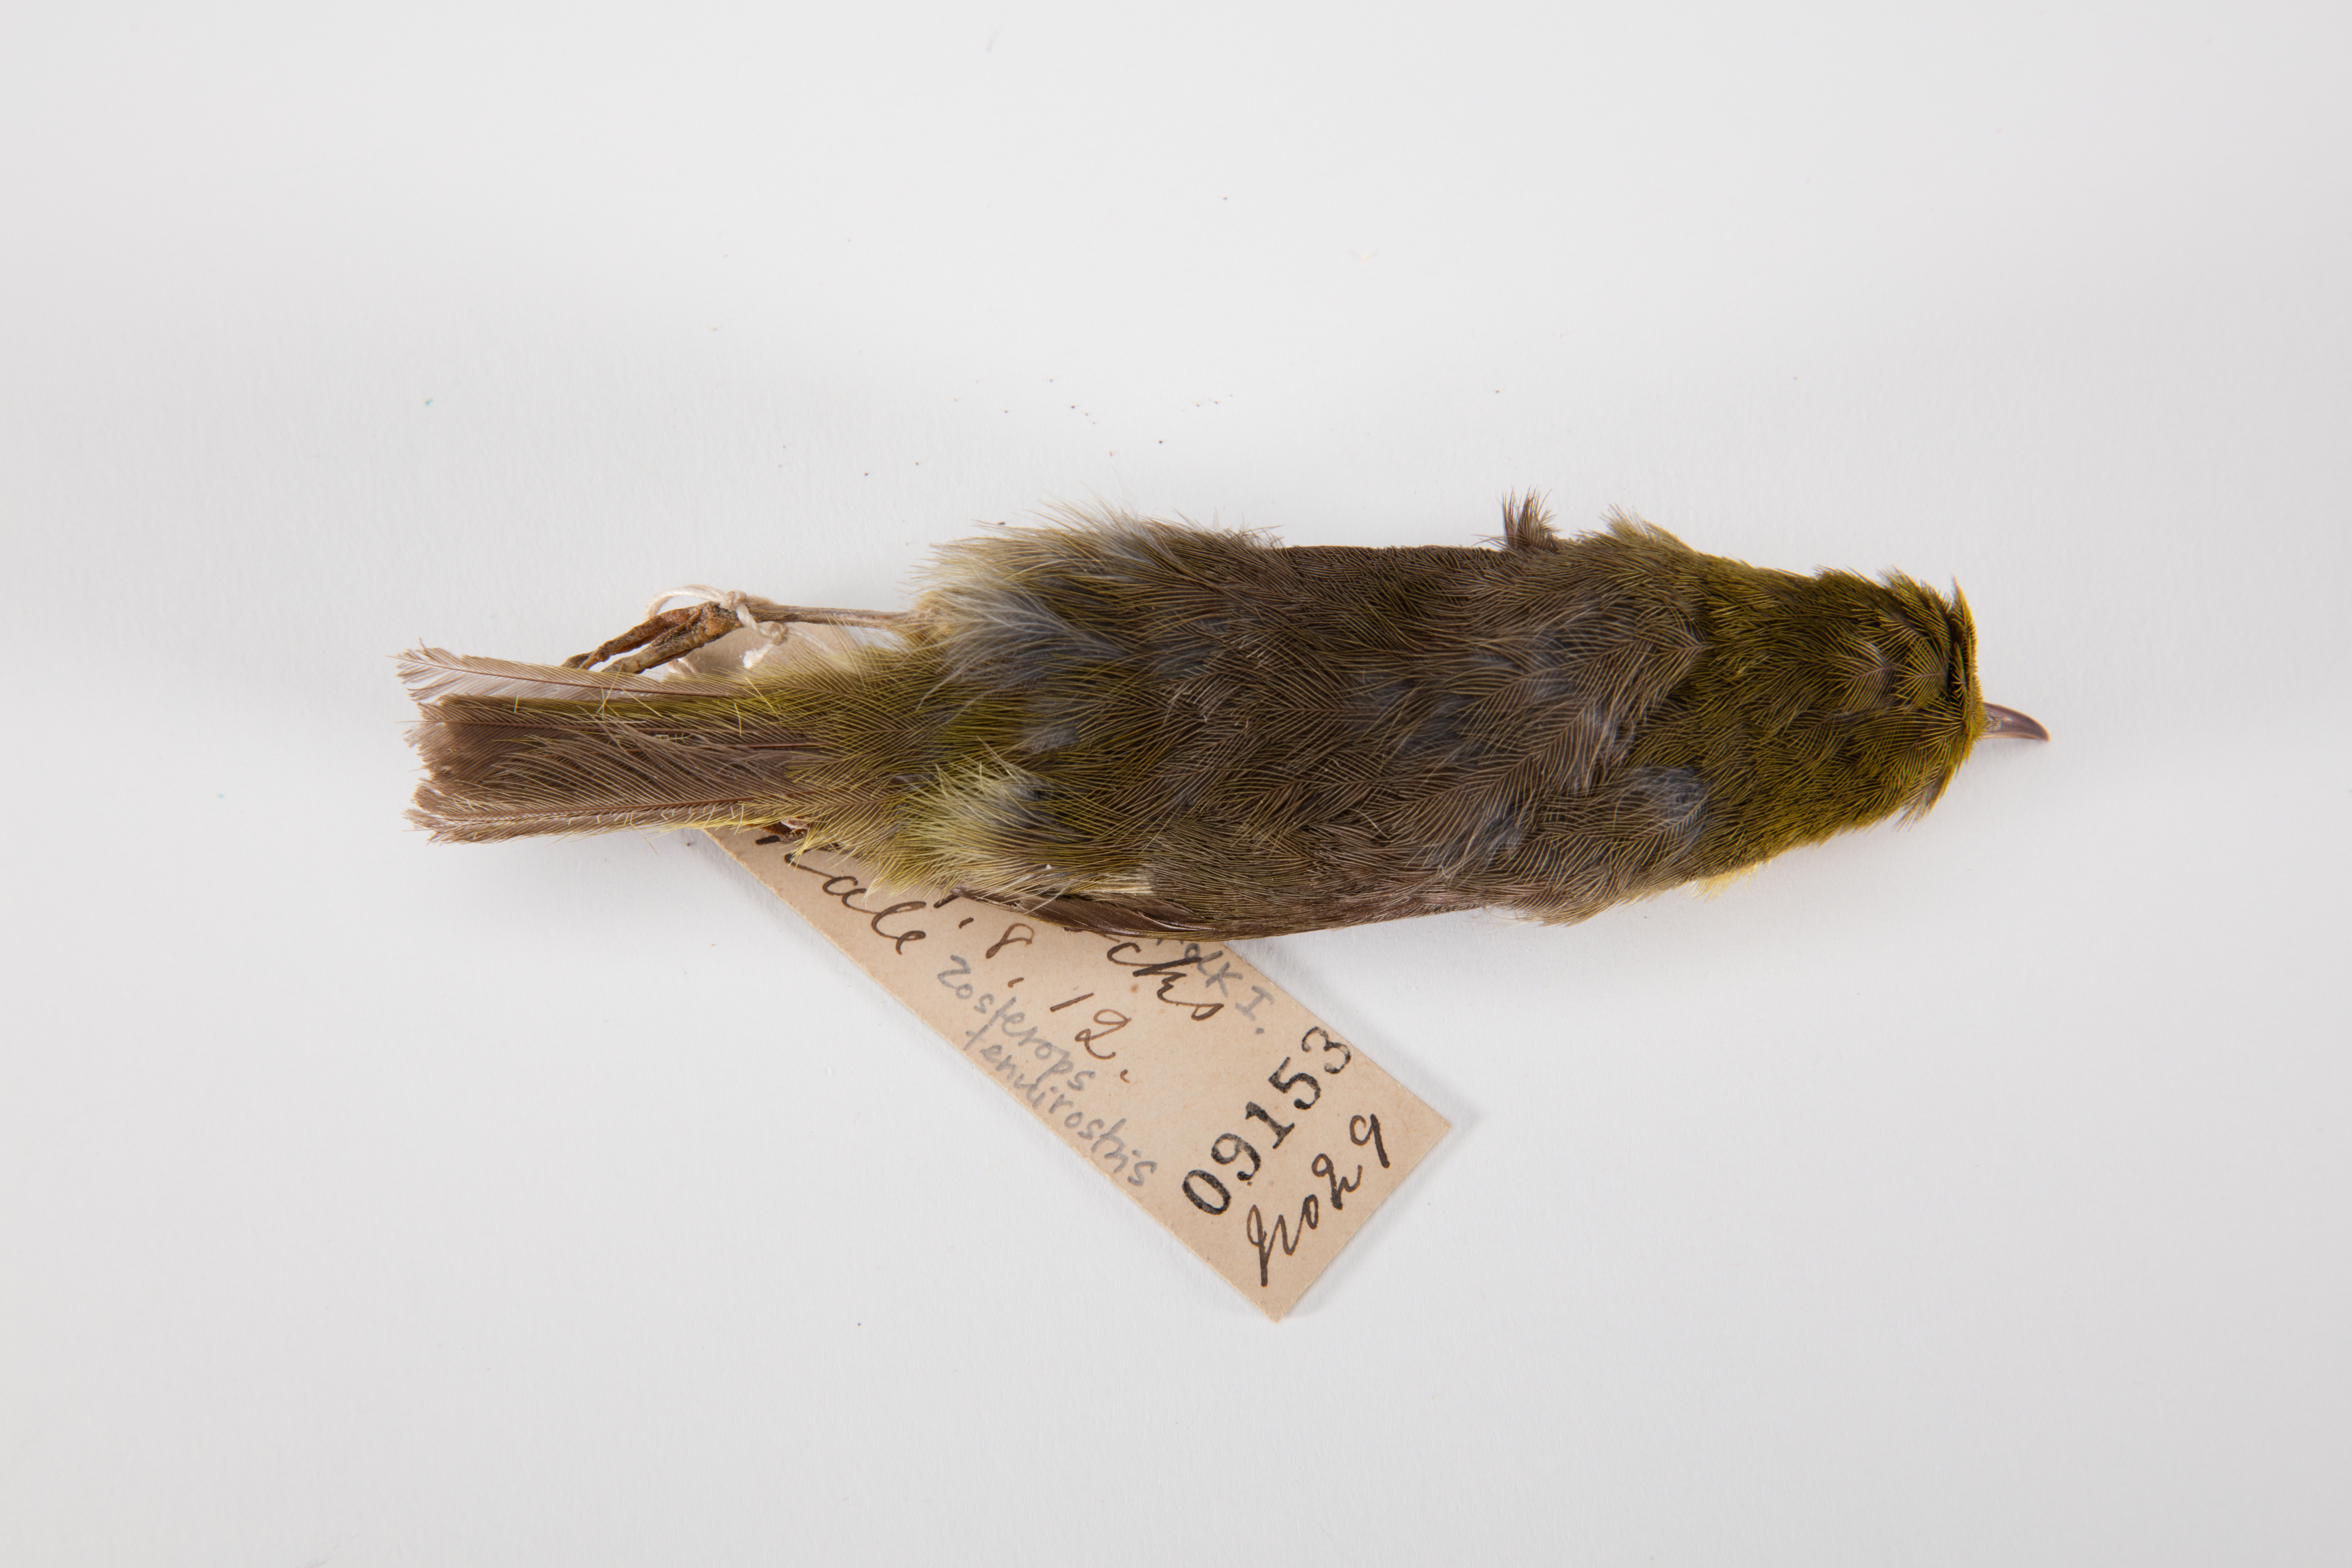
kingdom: Animalia
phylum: Chordata
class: Aves
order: Passeriformes
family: Zosteropidae
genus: Zosterops
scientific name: Zosterops tenuirostris
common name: Slender-billed white-eye
